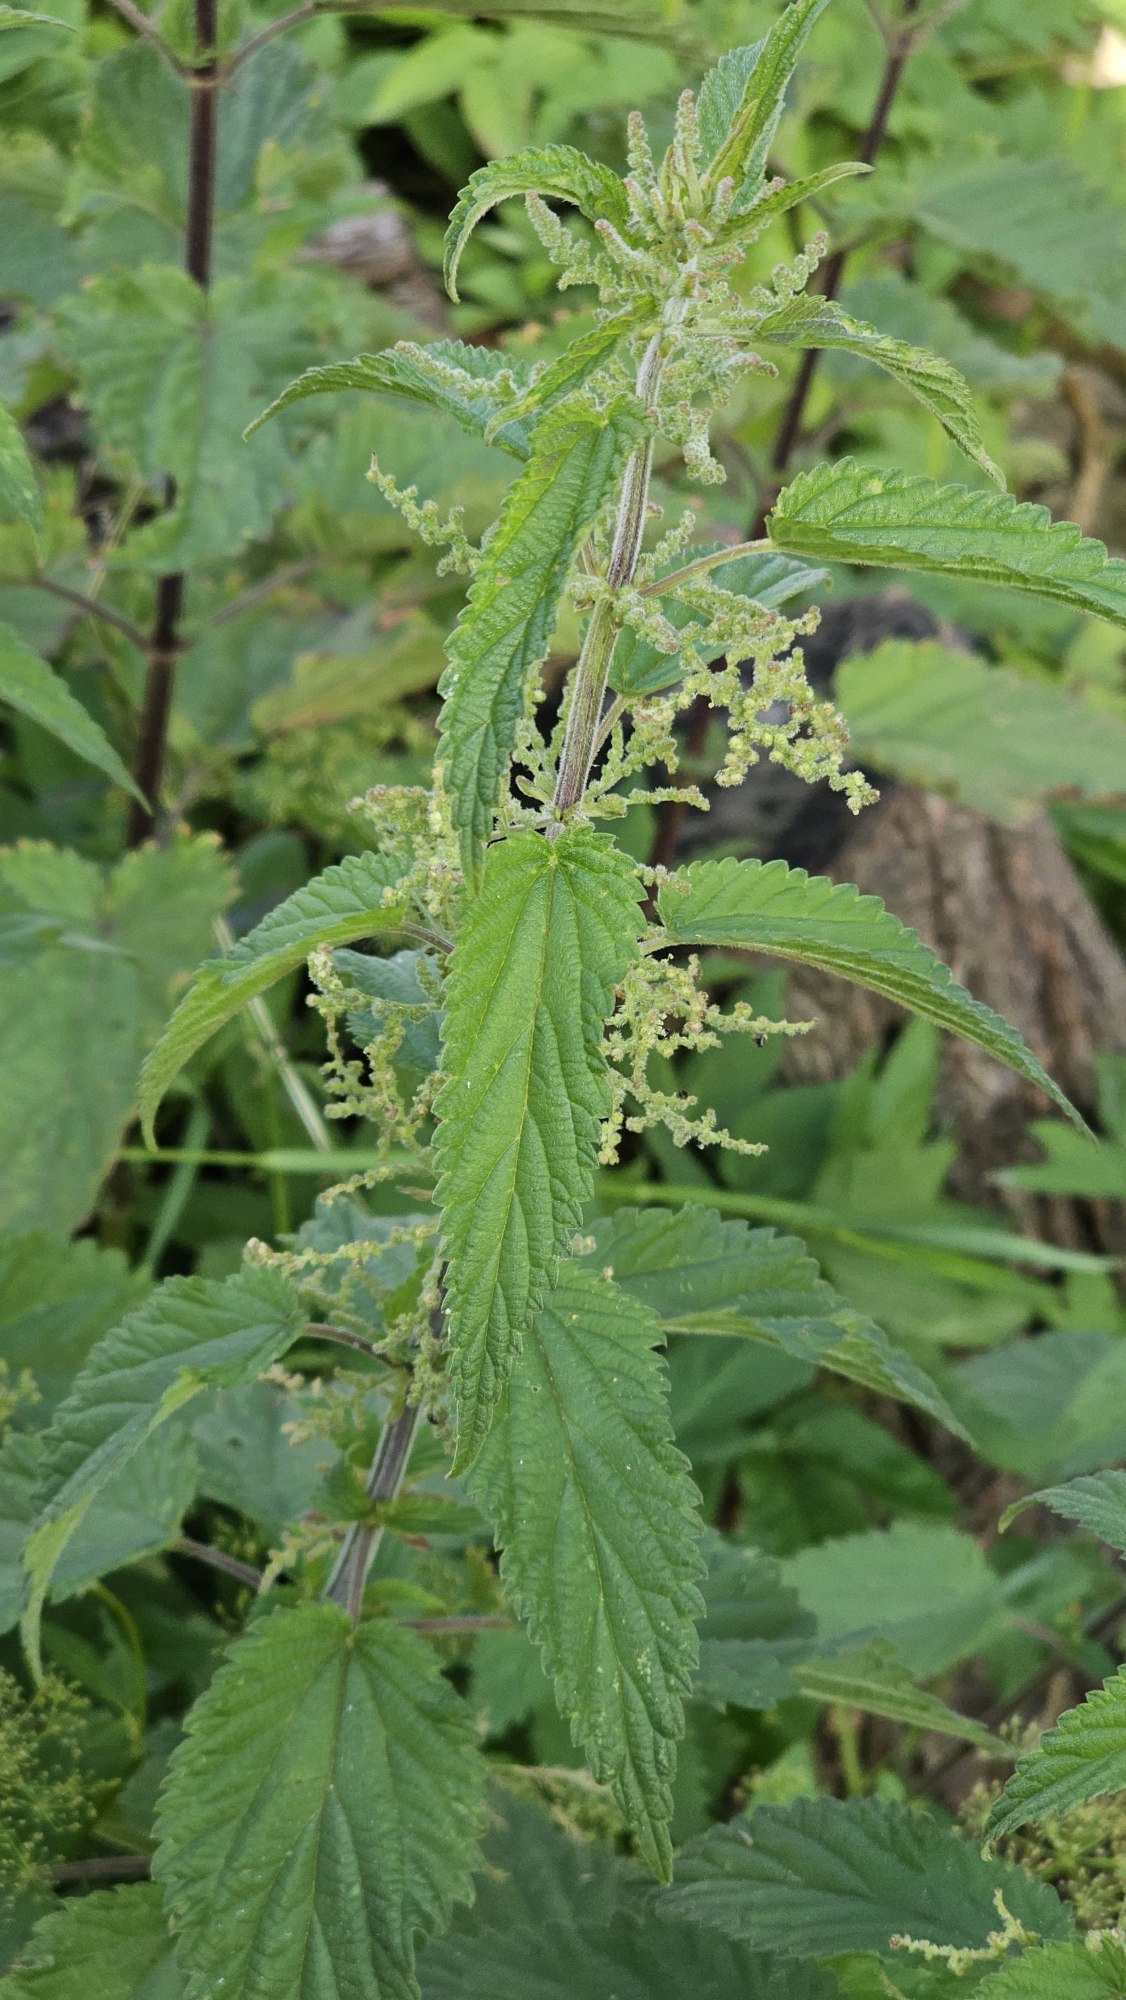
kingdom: Plantae
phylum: Tracheophyta
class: Magnoliopsida
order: Rosales
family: Urticaceae
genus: Urtica
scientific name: Urtica dioica
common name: Stor nælde
